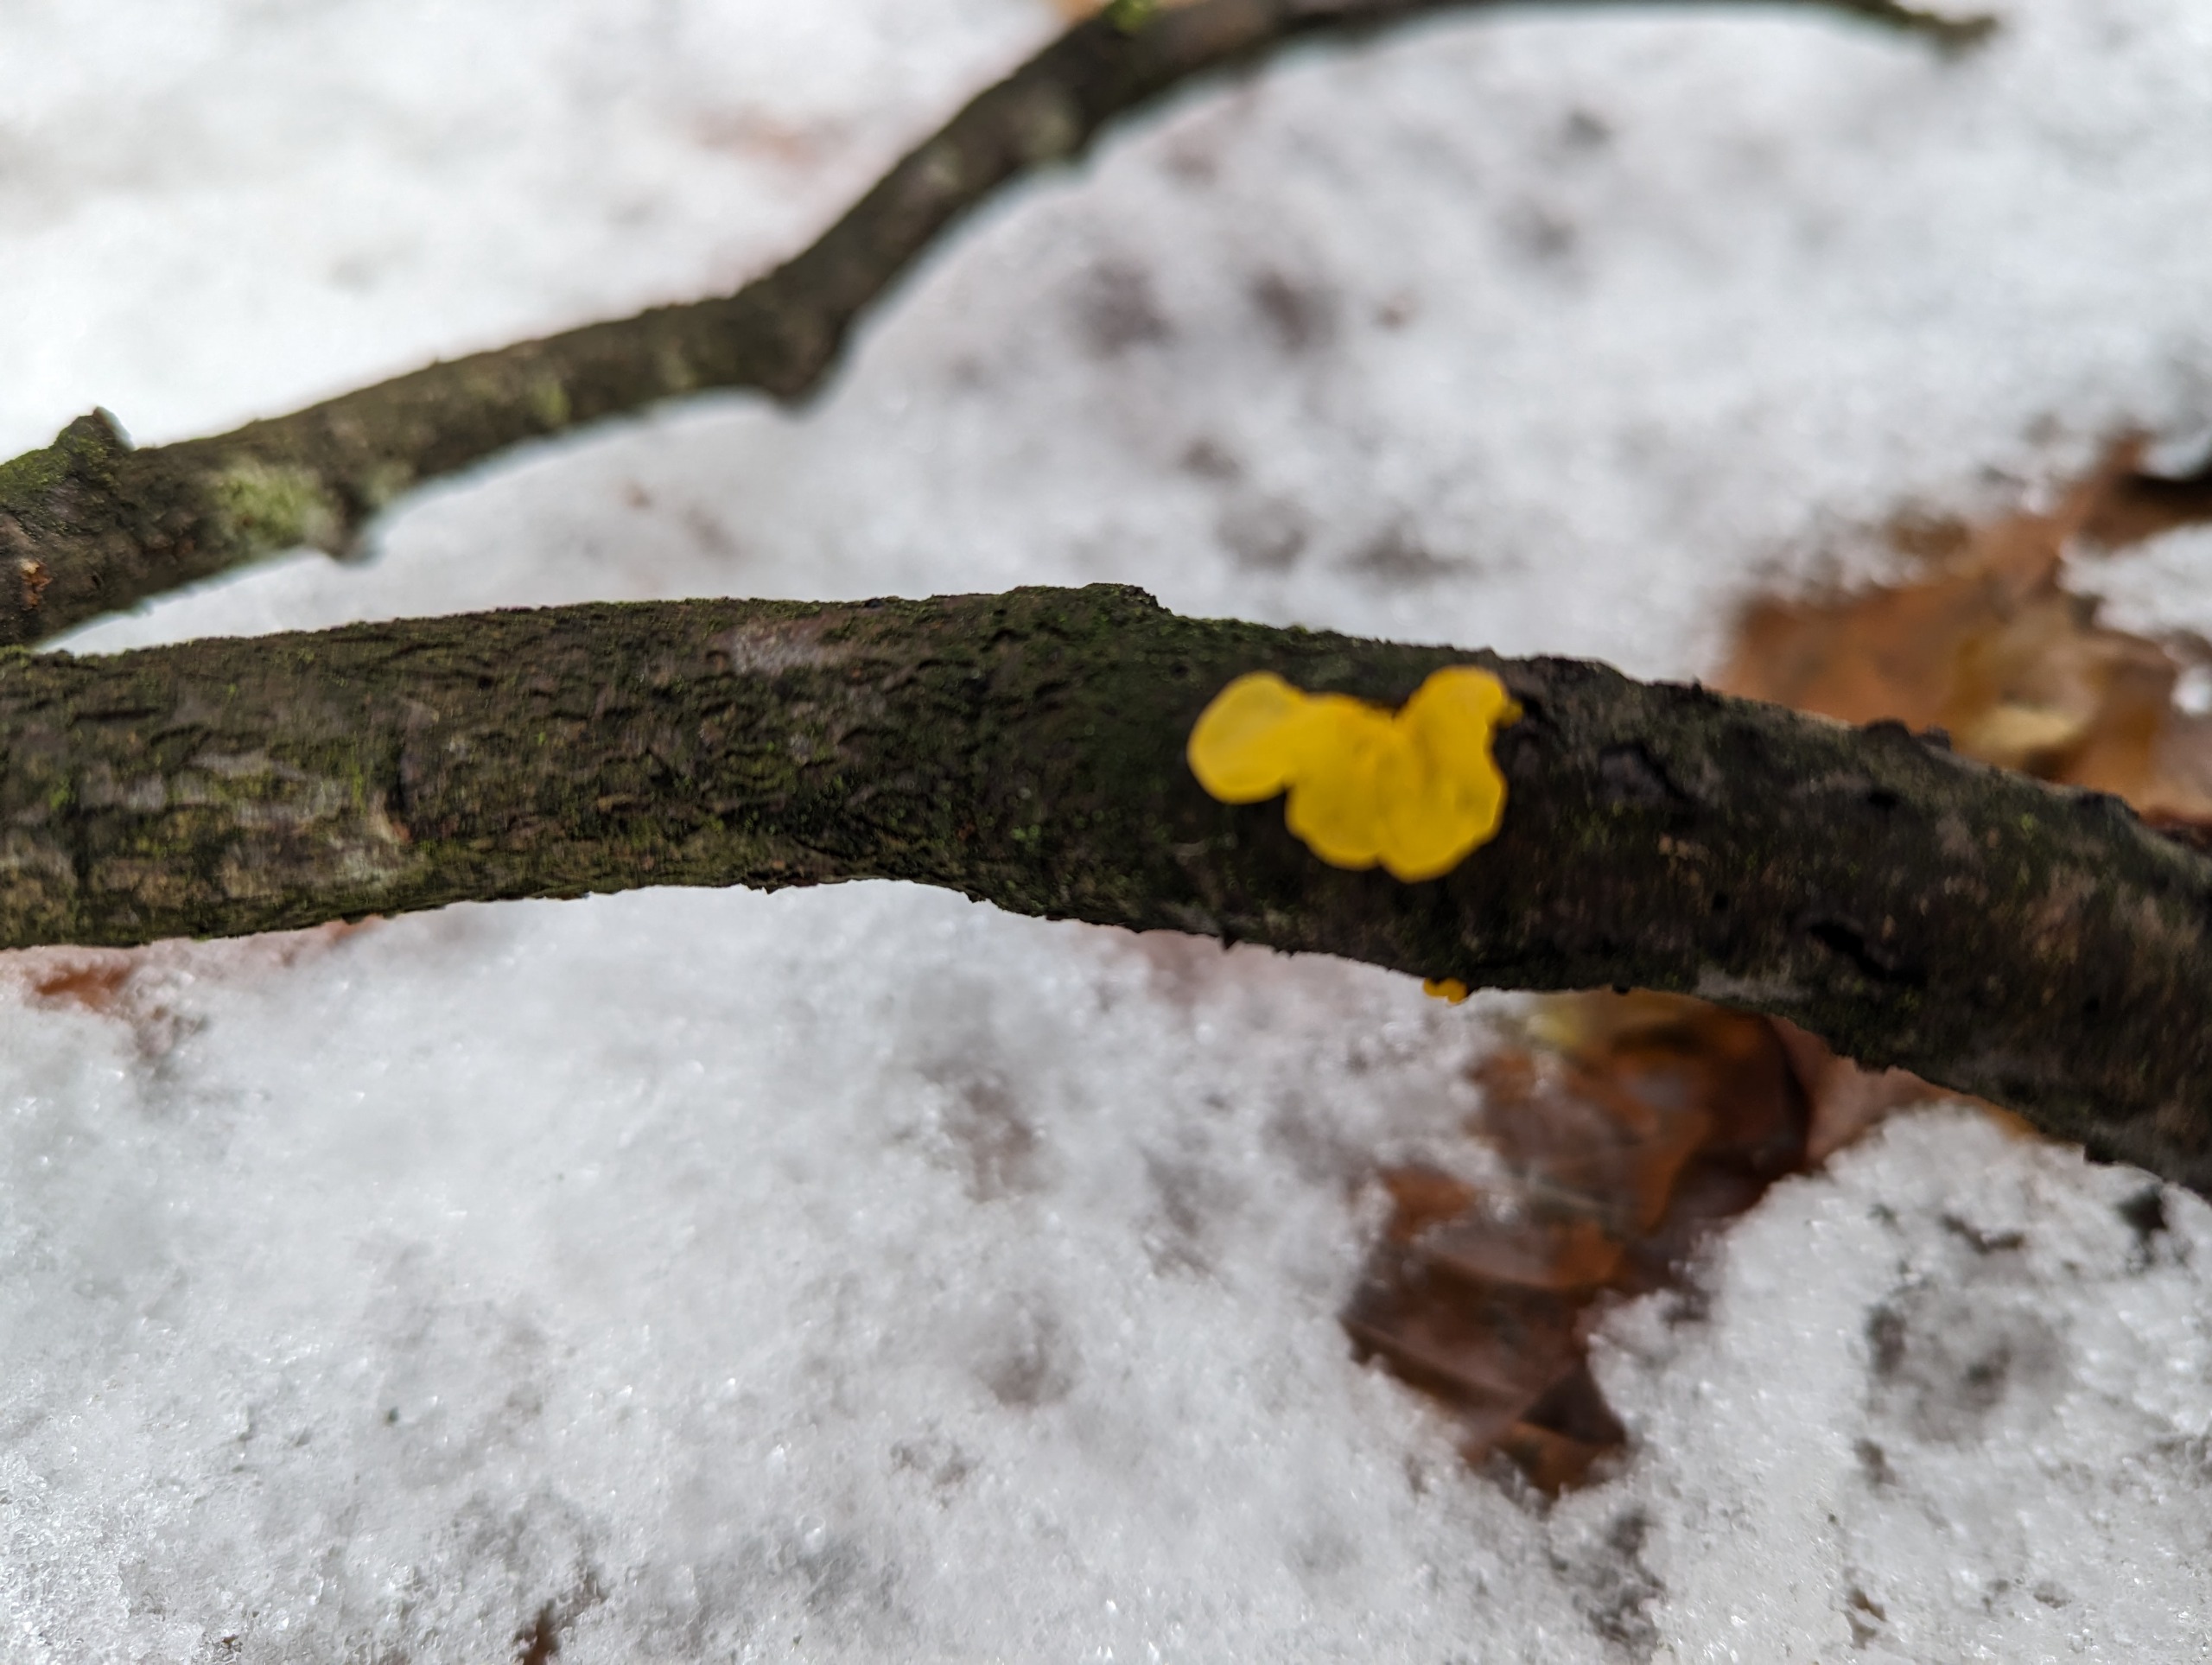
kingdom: Fungi
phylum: Basidiomycota
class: Tremellomycetes
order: Tremellales
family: Tremellaceae
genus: Tremella
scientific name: Tremella mesenterica
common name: Gul bævresvamp
